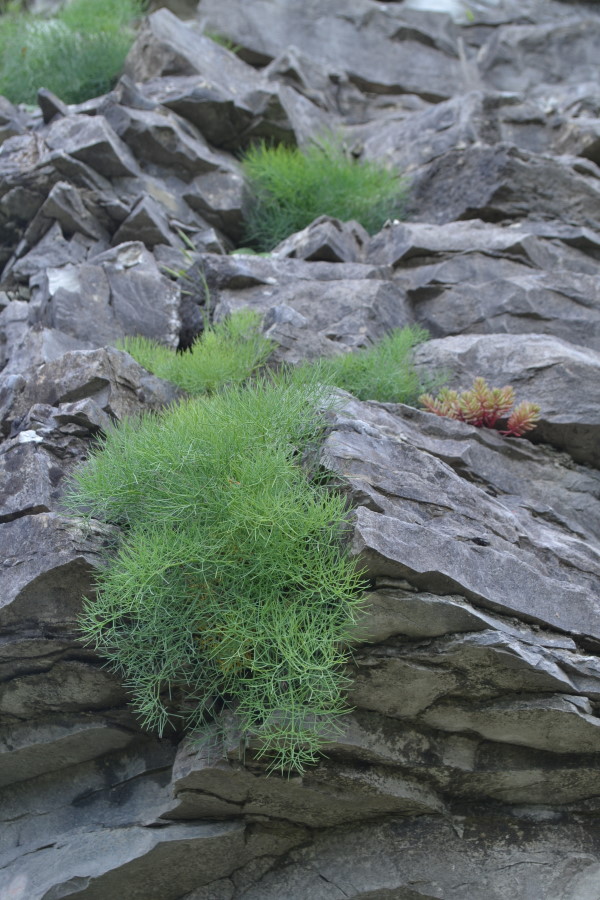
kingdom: Plantae
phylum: Tracheophyta
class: Magnoliopsida
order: Apiales
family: Apiaceae
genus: Ferula
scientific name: Ferula
